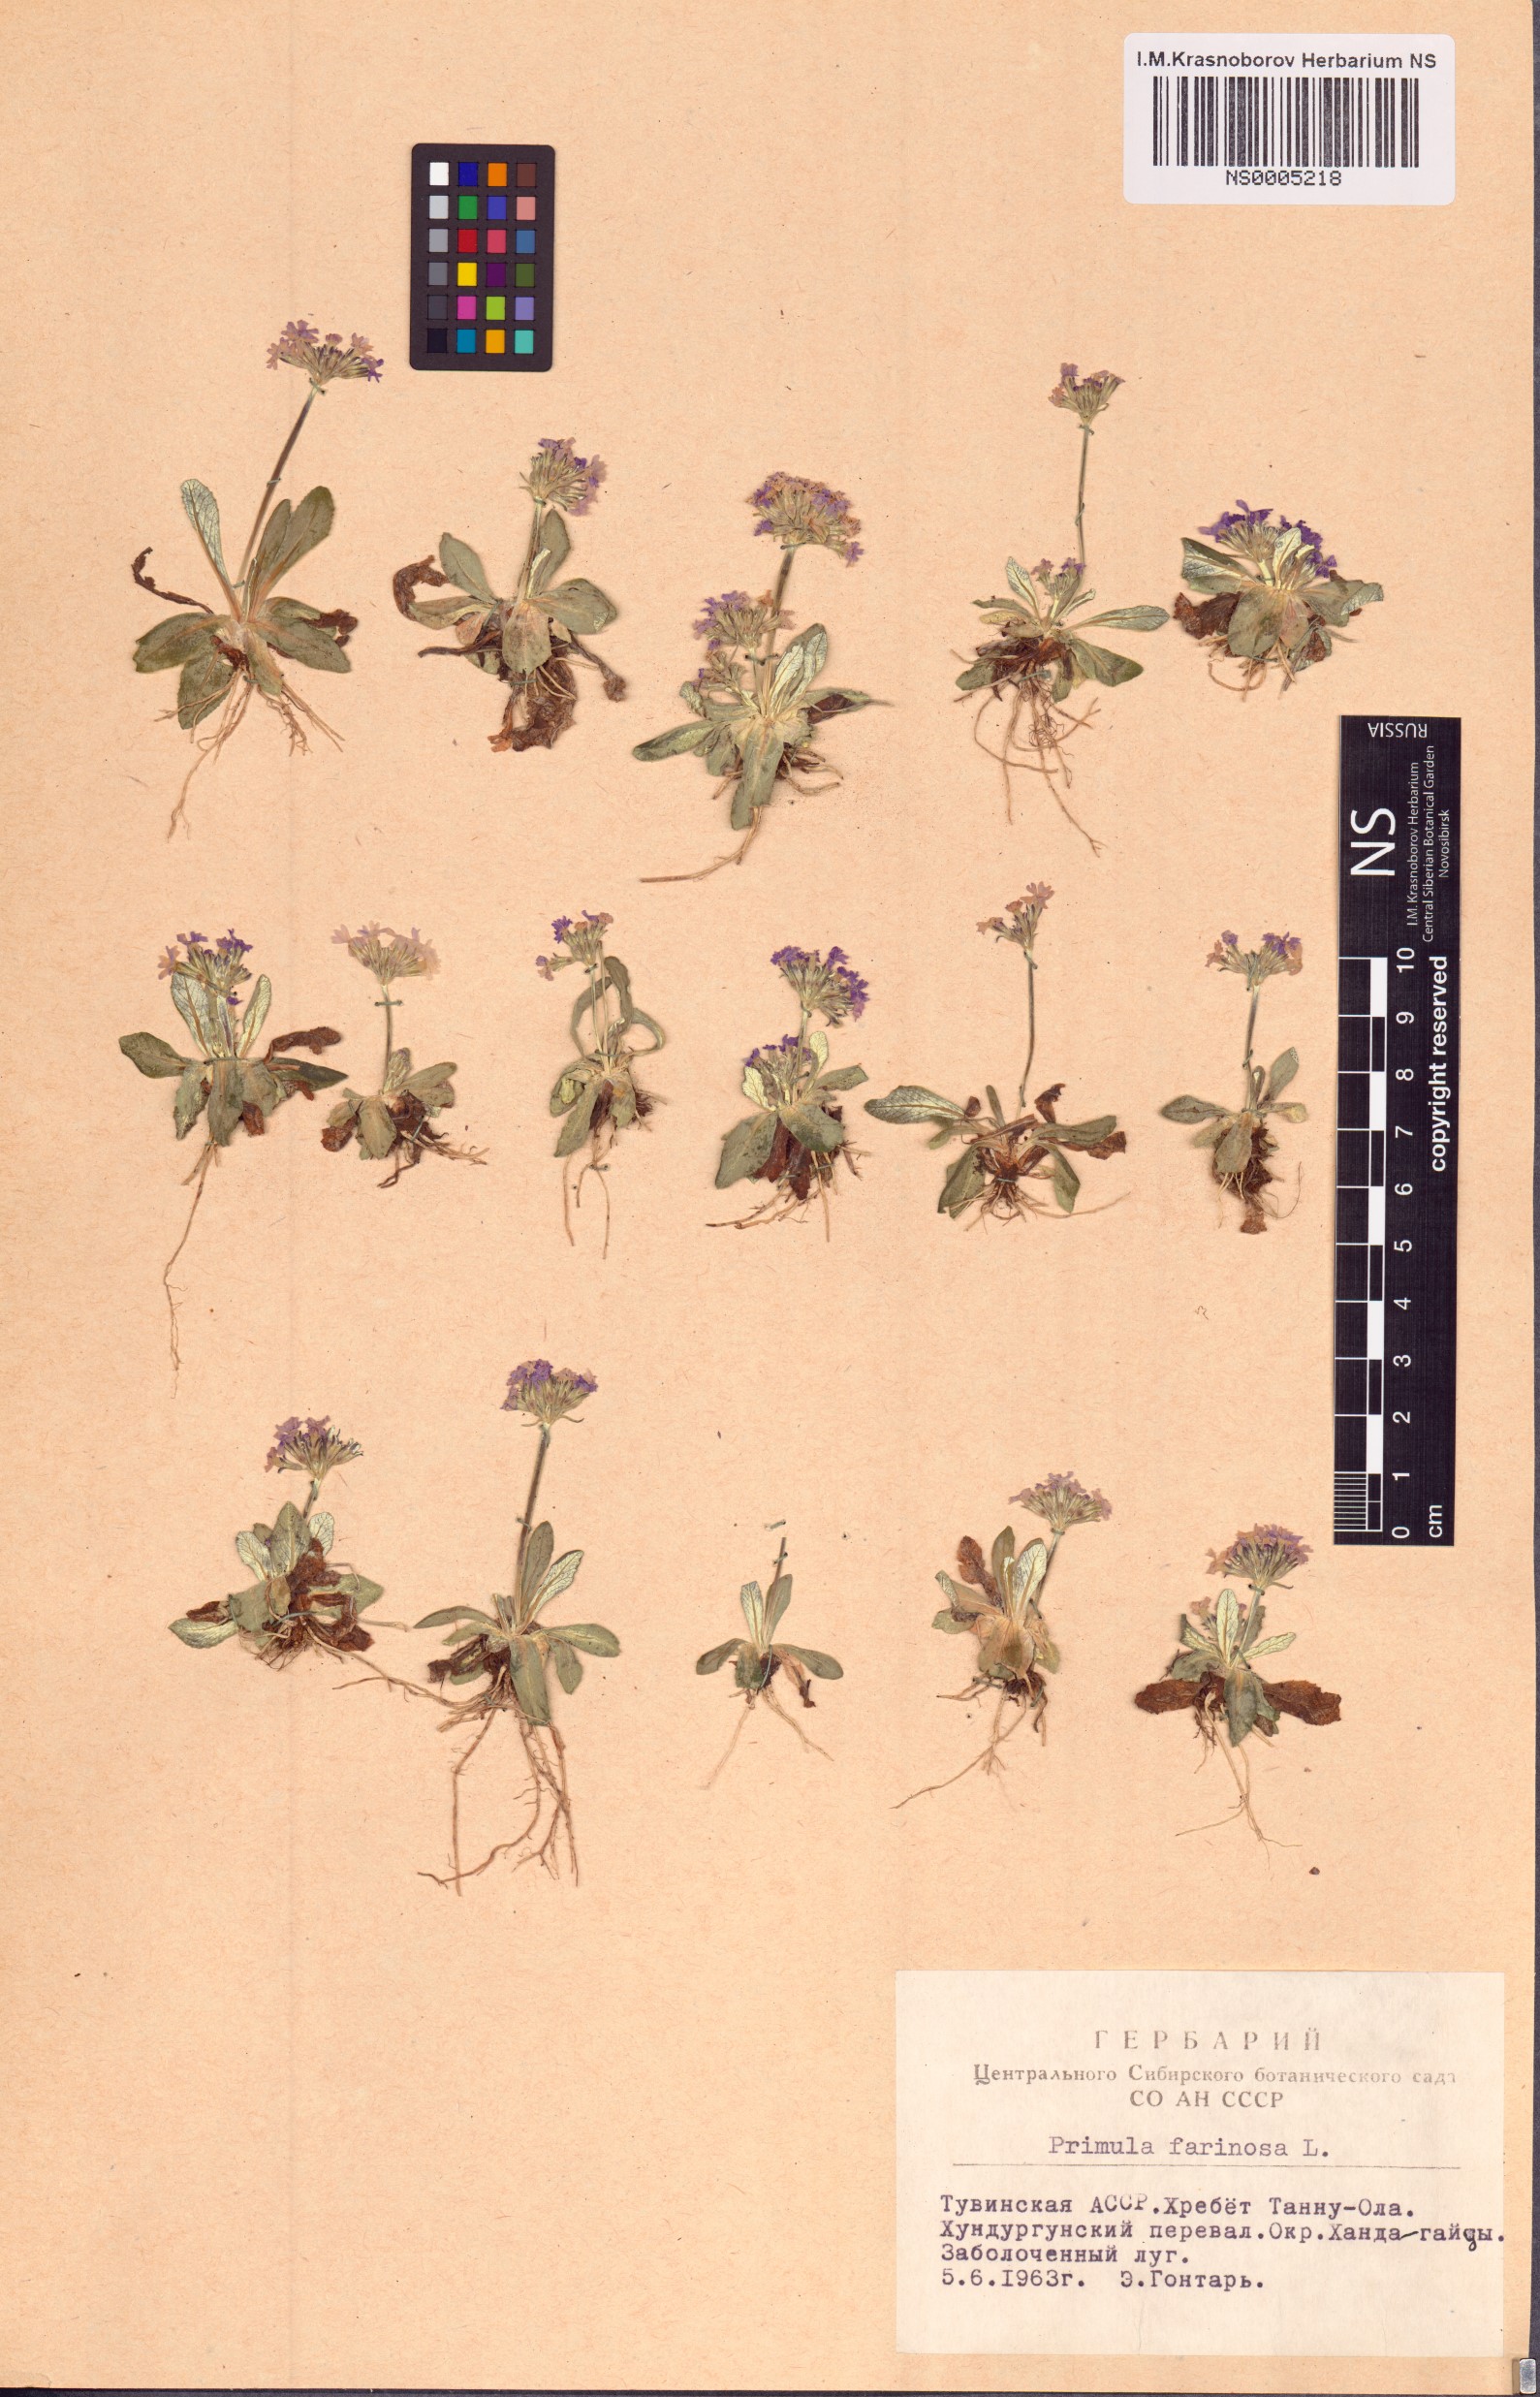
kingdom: Plantae
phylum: Tracheophyta
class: Magnoliopsida
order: Ericales
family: Primulaceae
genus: Primula
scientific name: Primula farinosa
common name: Bird's-eye primrose
